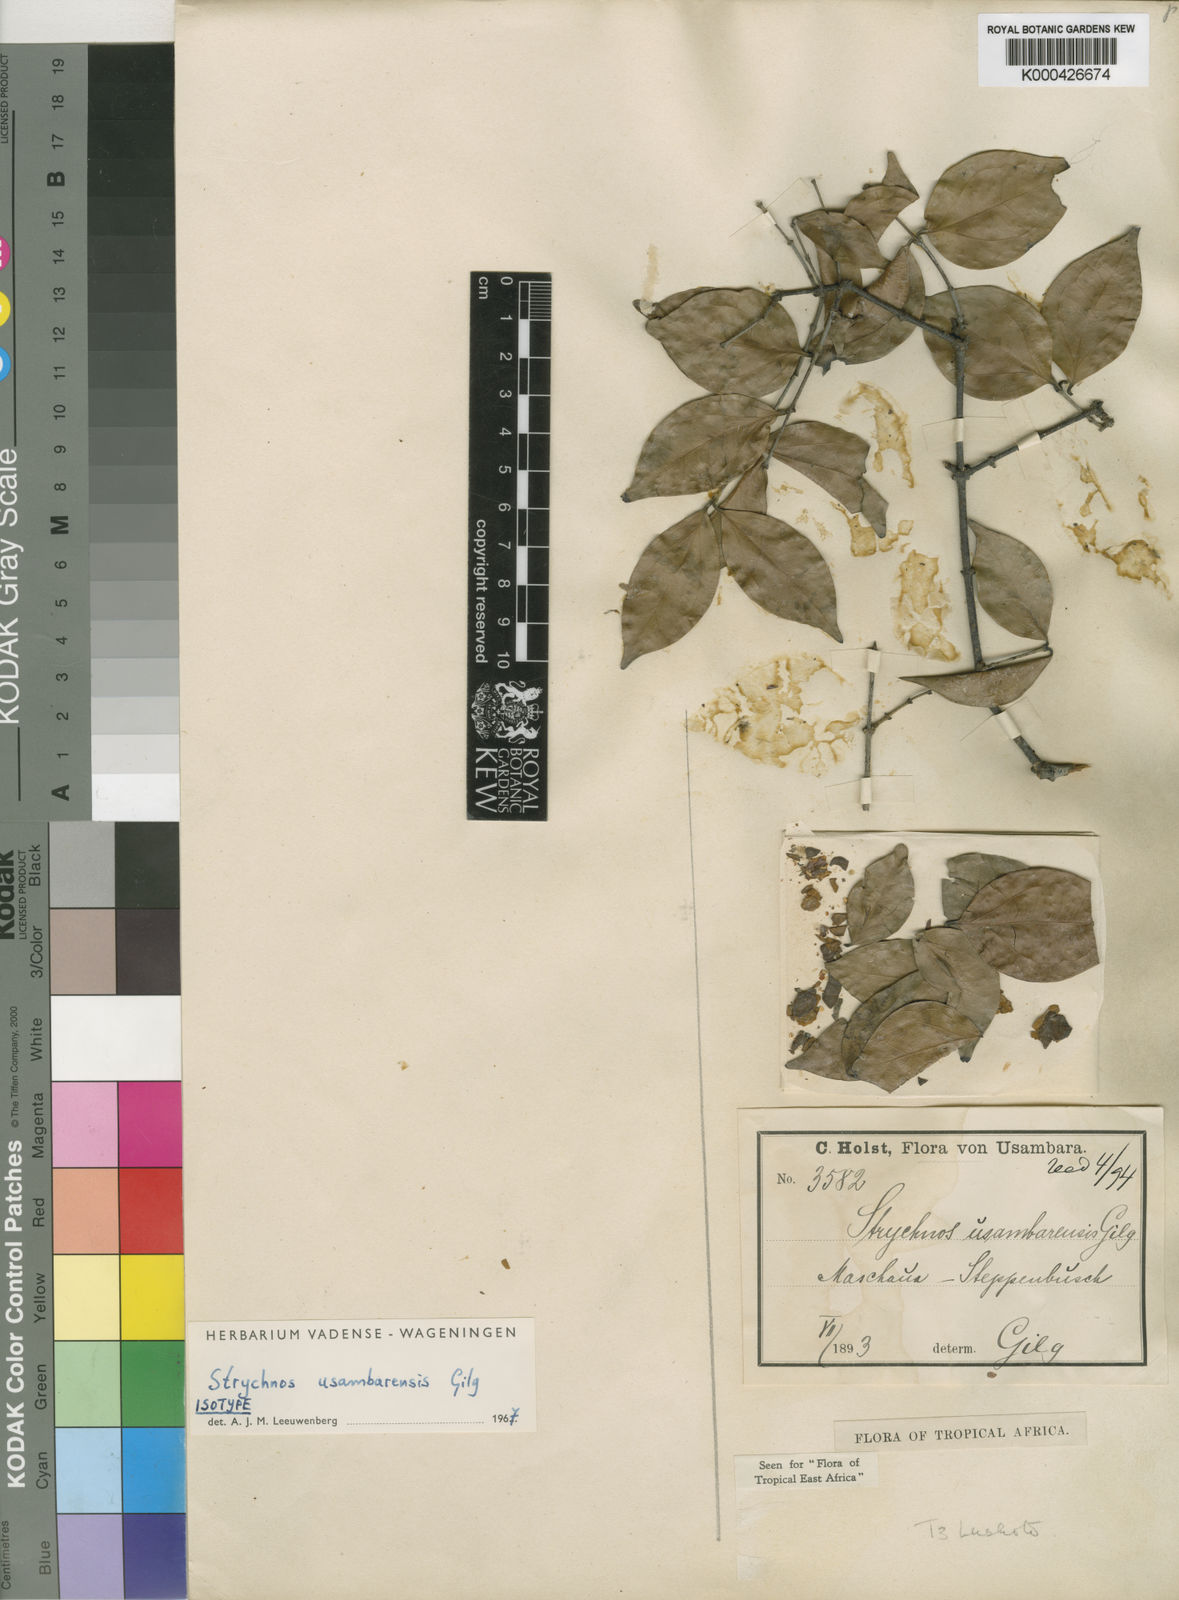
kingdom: Plantae
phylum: Tracheophyta
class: Magnoliopsida
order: Gentianales
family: Loganiaceae
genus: Strychnos
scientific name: Strychnos
